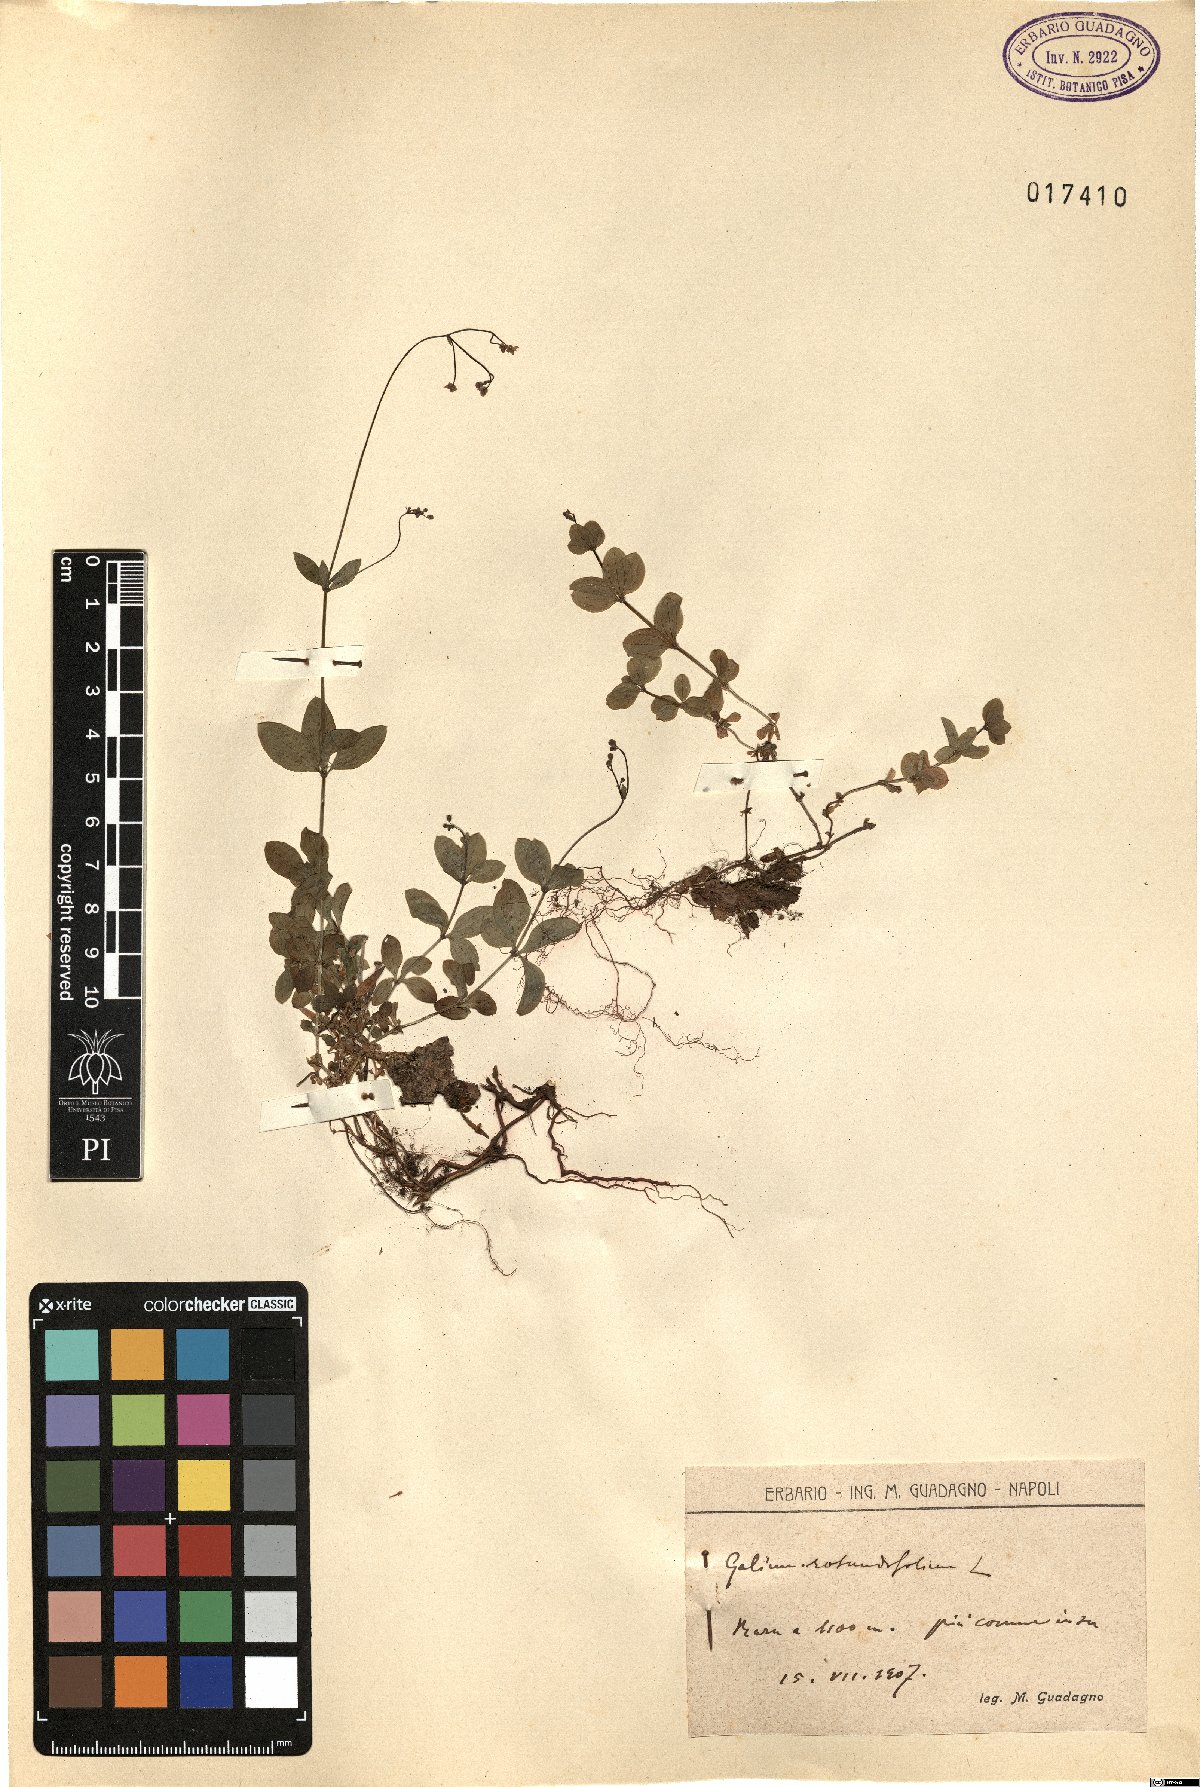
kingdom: Plantae
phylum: Tracheophyta
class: Magnoliopsida
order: Gentianales
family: Rubiaceae
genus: Galium
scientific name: Galium rotundifolium
